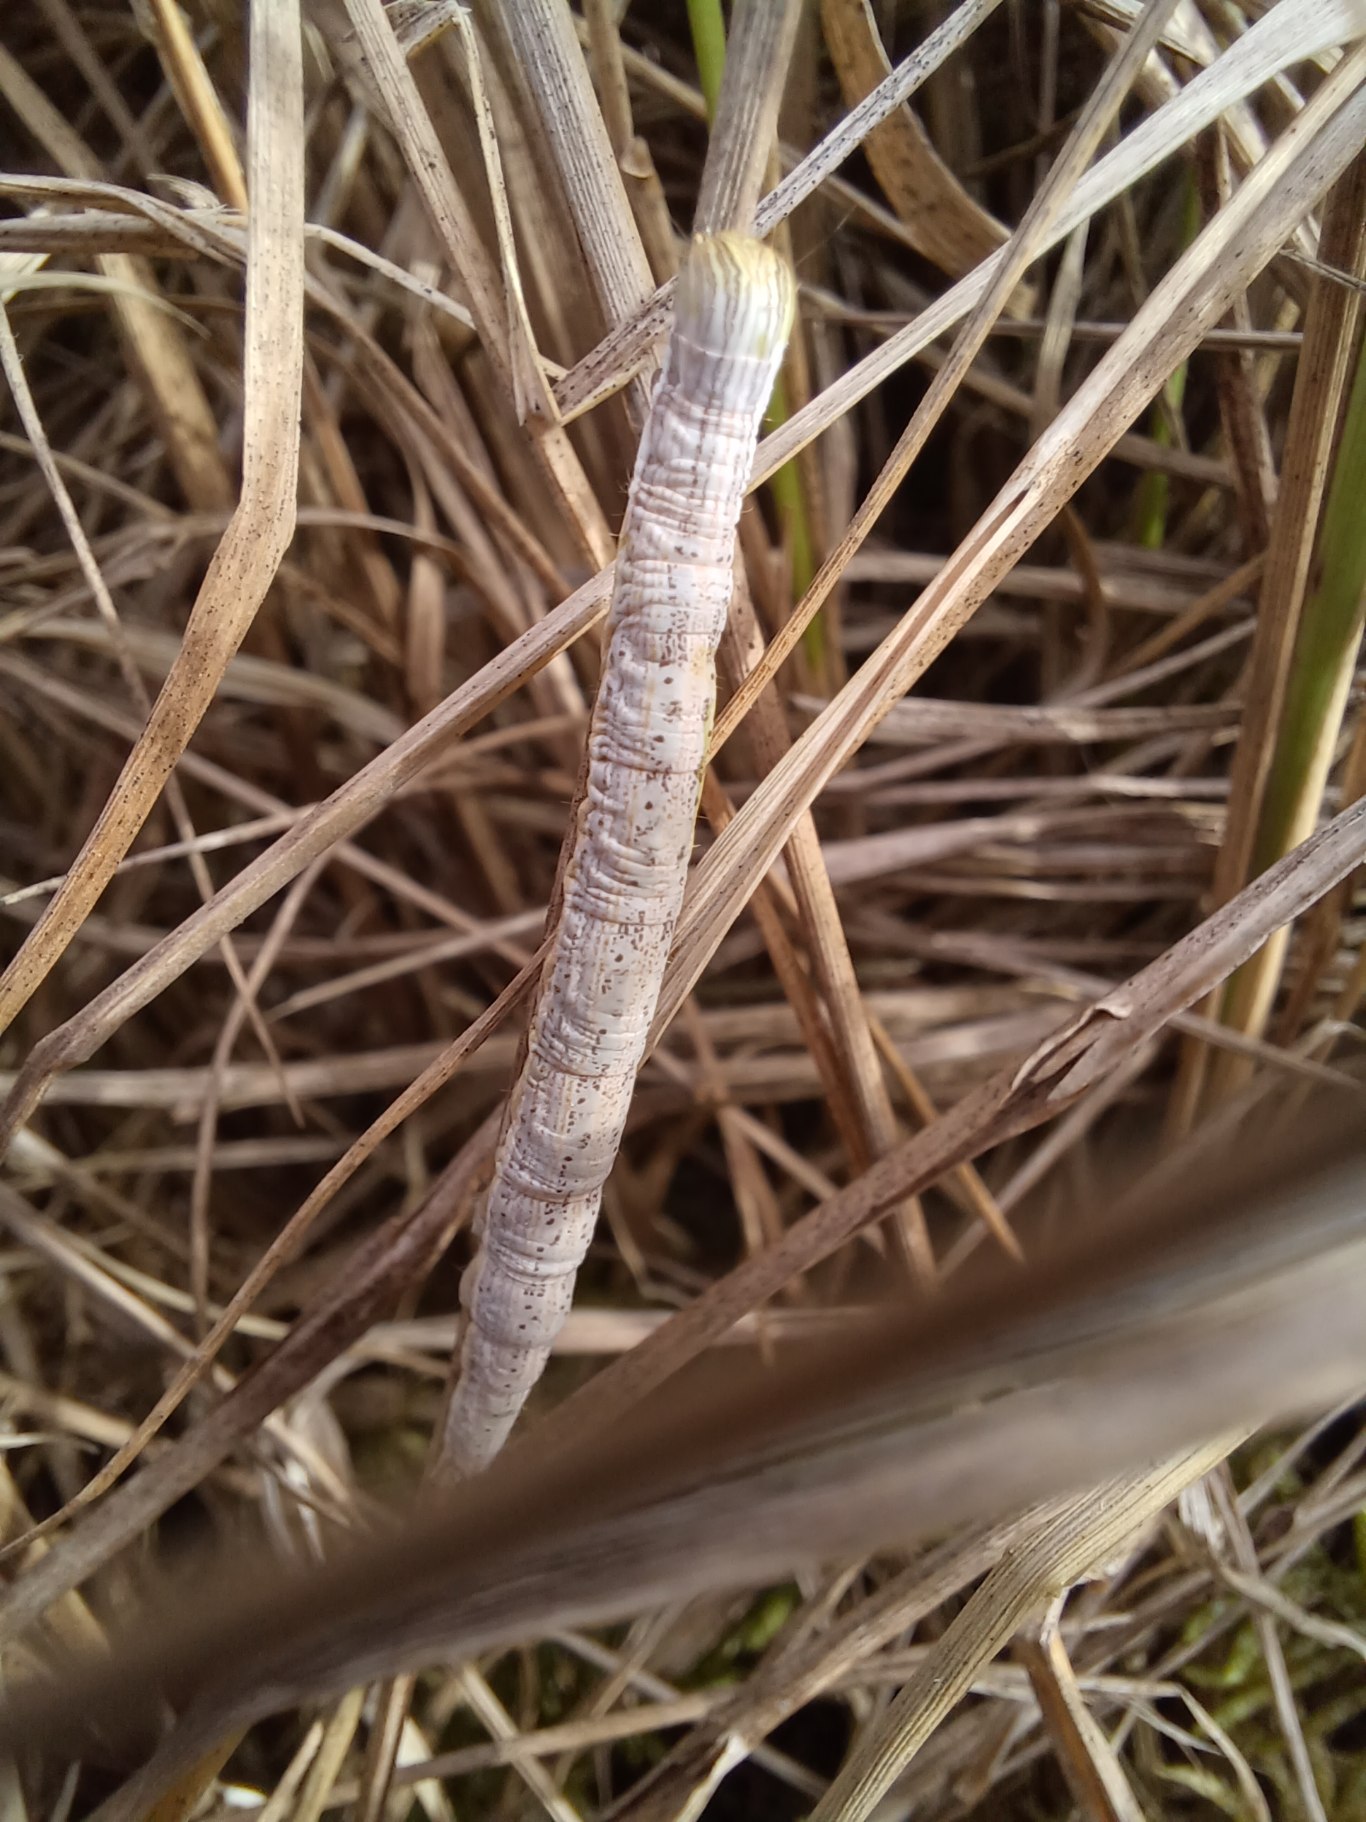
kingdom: Animalia
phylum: Arthropoda
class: Insecta
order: Lepidoptera
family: Erebidae
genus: Callistege
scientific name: Callistege mi
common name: Marmoreret kløverugle
